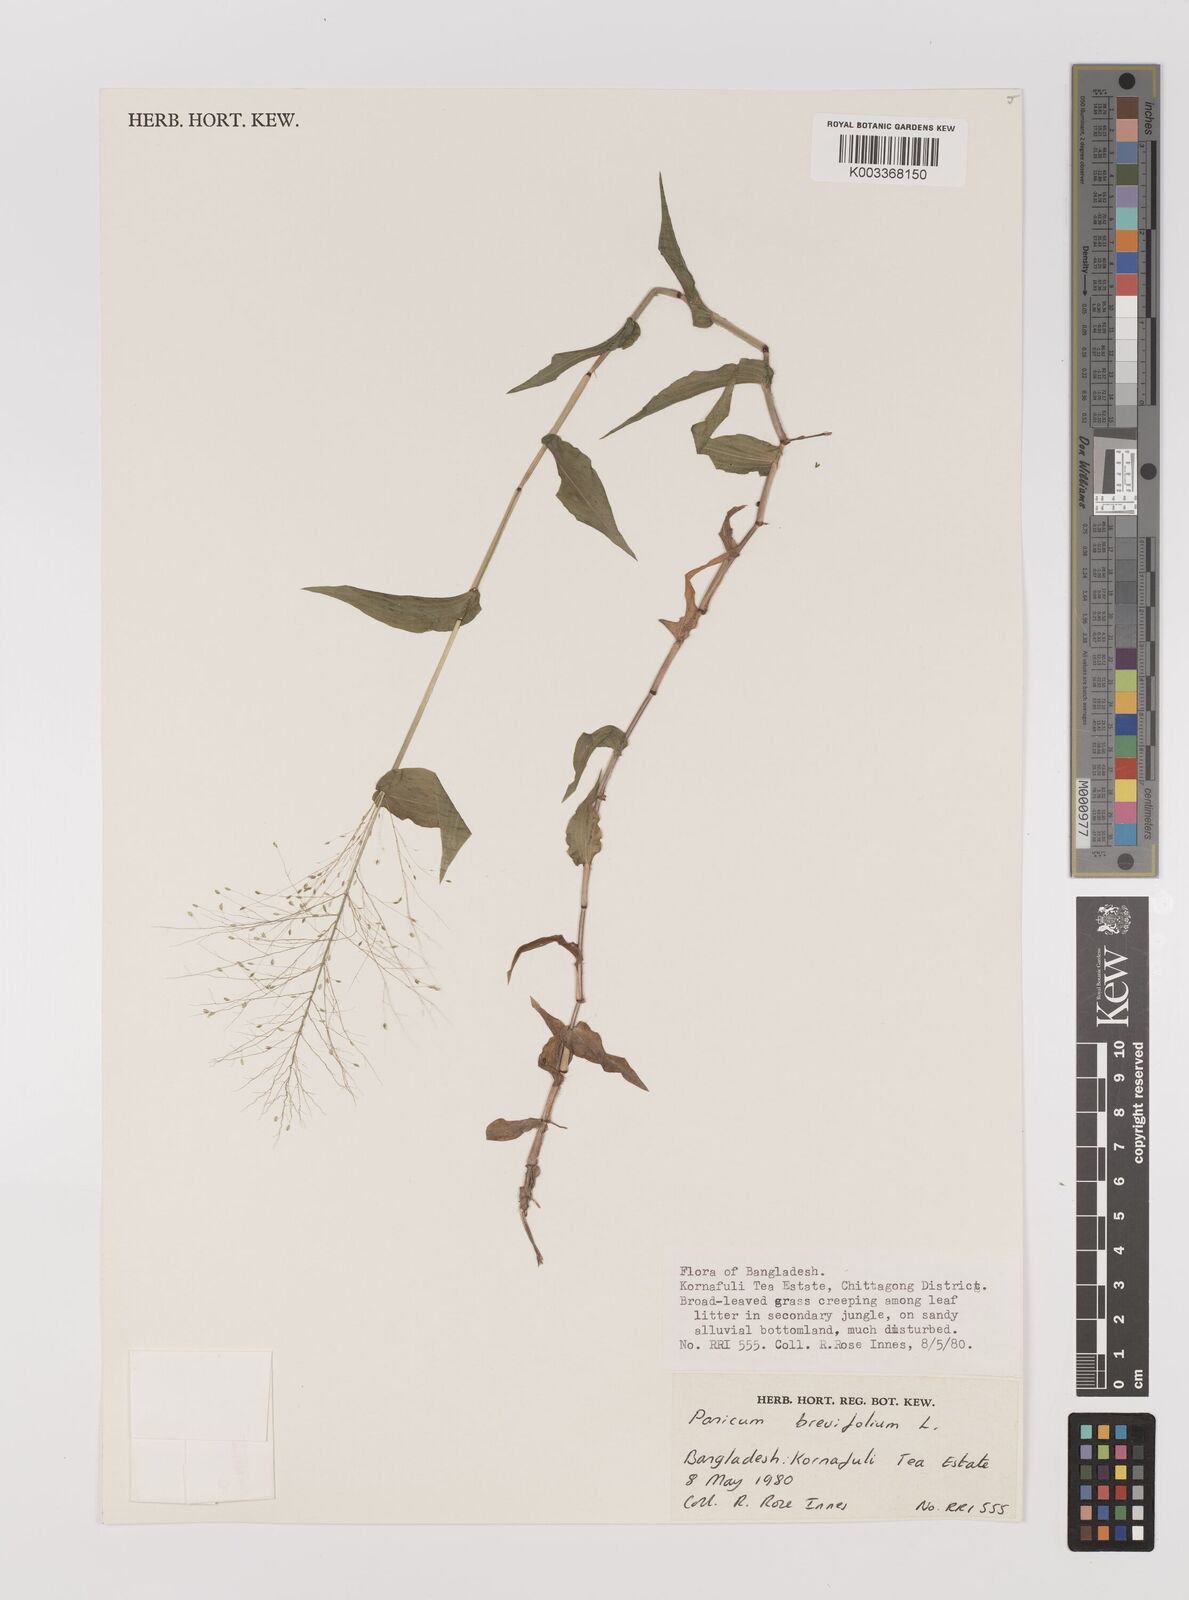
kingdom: Plantae
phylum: Tracheophyta
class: Liliopsida
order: Poales
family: Poaceae
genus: Panicum
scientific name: Panicum brevifolium
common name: Shortleaf panic grass
